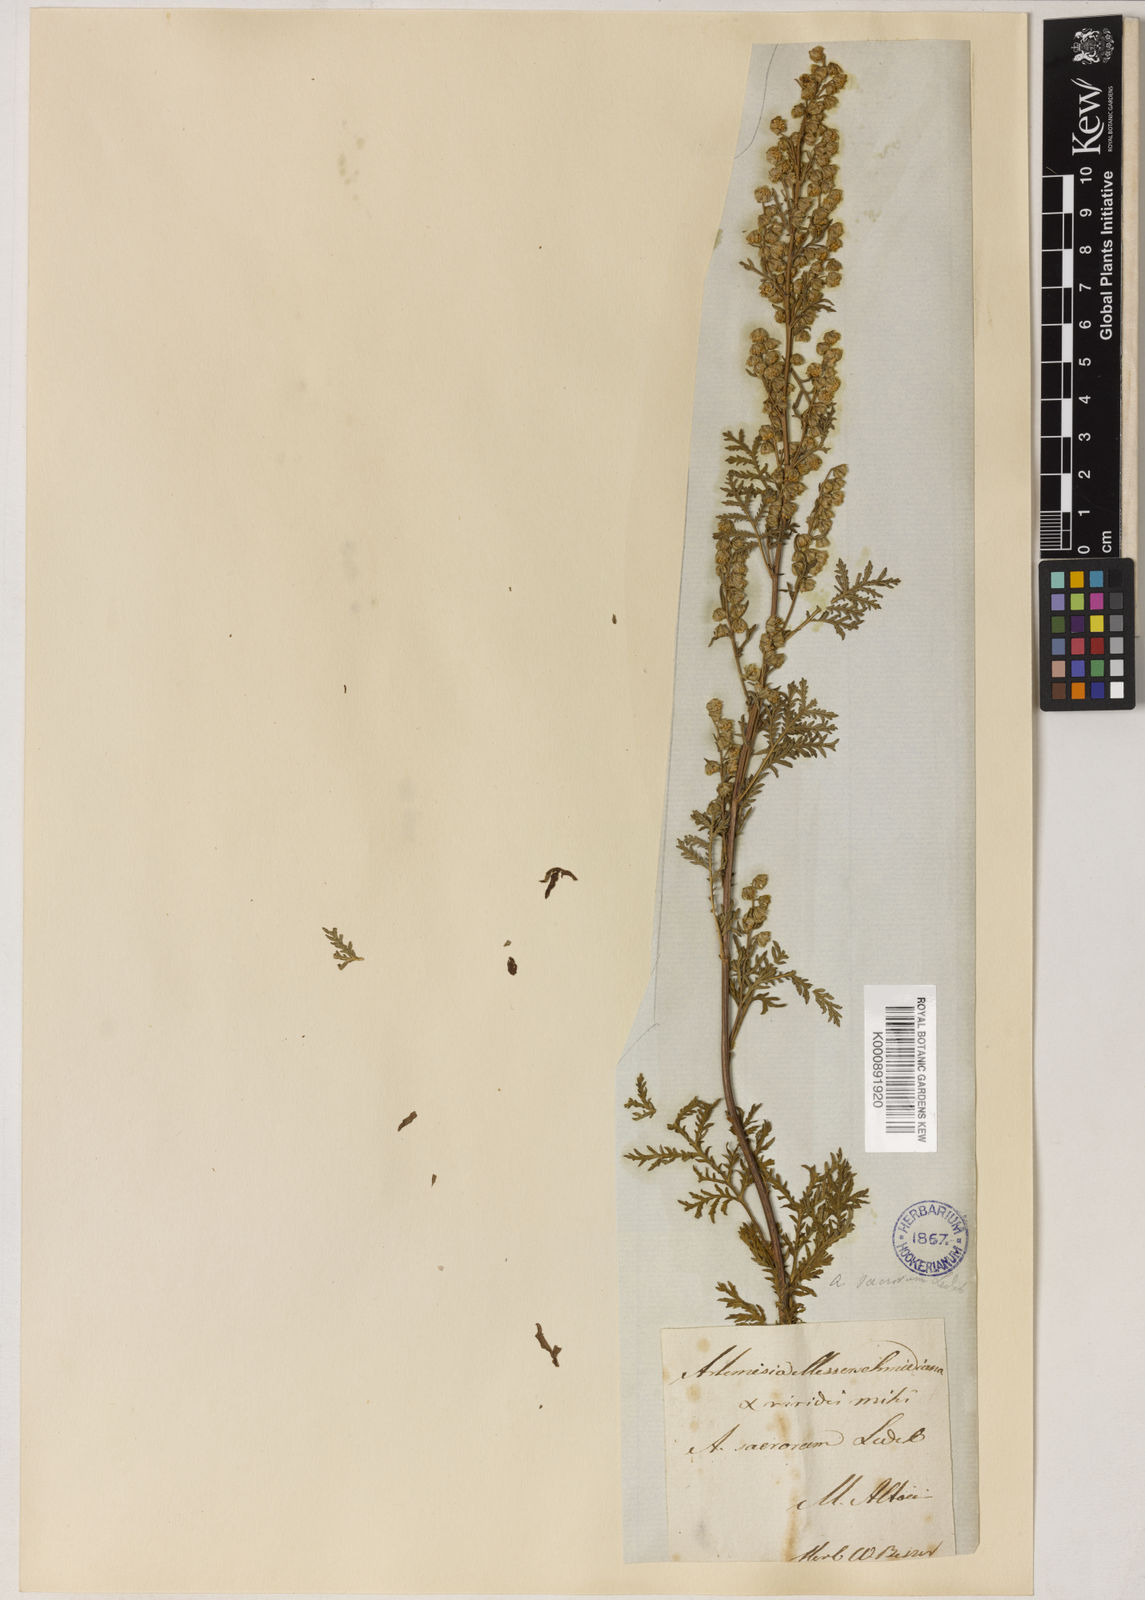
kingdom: Plantae
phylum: Tracheophyta
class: Magnoliopsida
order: Asterales
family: Asteraceae
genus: Artemisia
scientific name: Artemisia gmelinii
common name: Gmelin's wormwood
